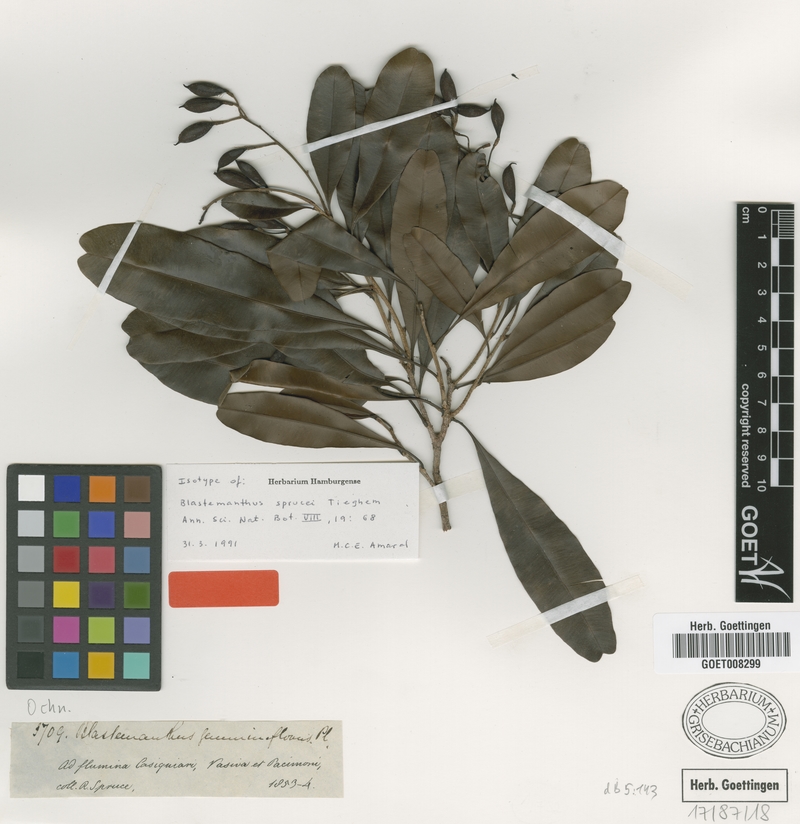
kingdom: Plantae
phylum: Tracheophyta
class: Magnoliopsida
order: Malpighiales
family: Ochnaceae
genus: Blastemanthus
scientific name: Blastemanthus gemmiflorus
